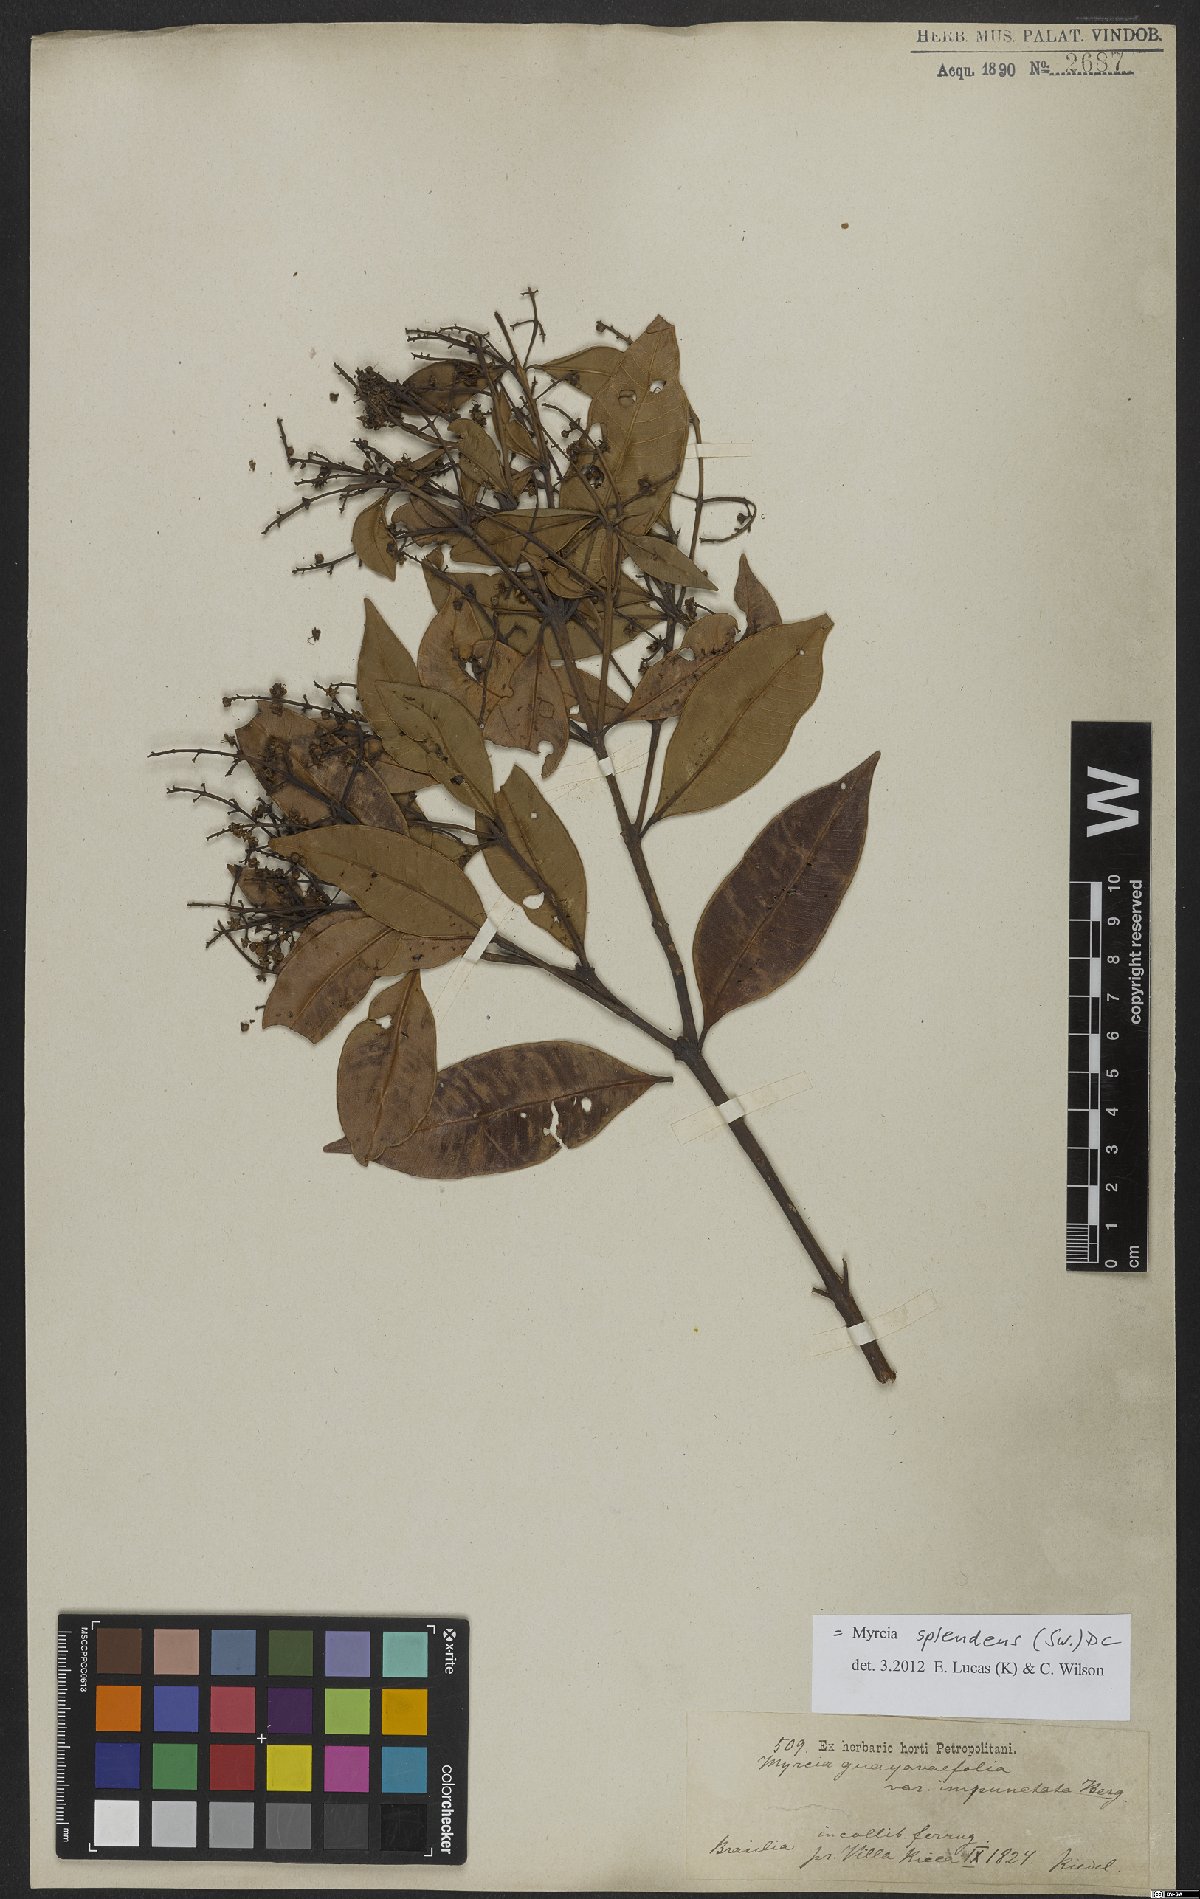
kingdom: Plantae
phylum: Tracheophyta
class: Magnoliopsida
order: Myrtales
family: Myrtaceae
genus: Myrcia
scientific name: Myrcia splendens
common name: Surinam cherry
